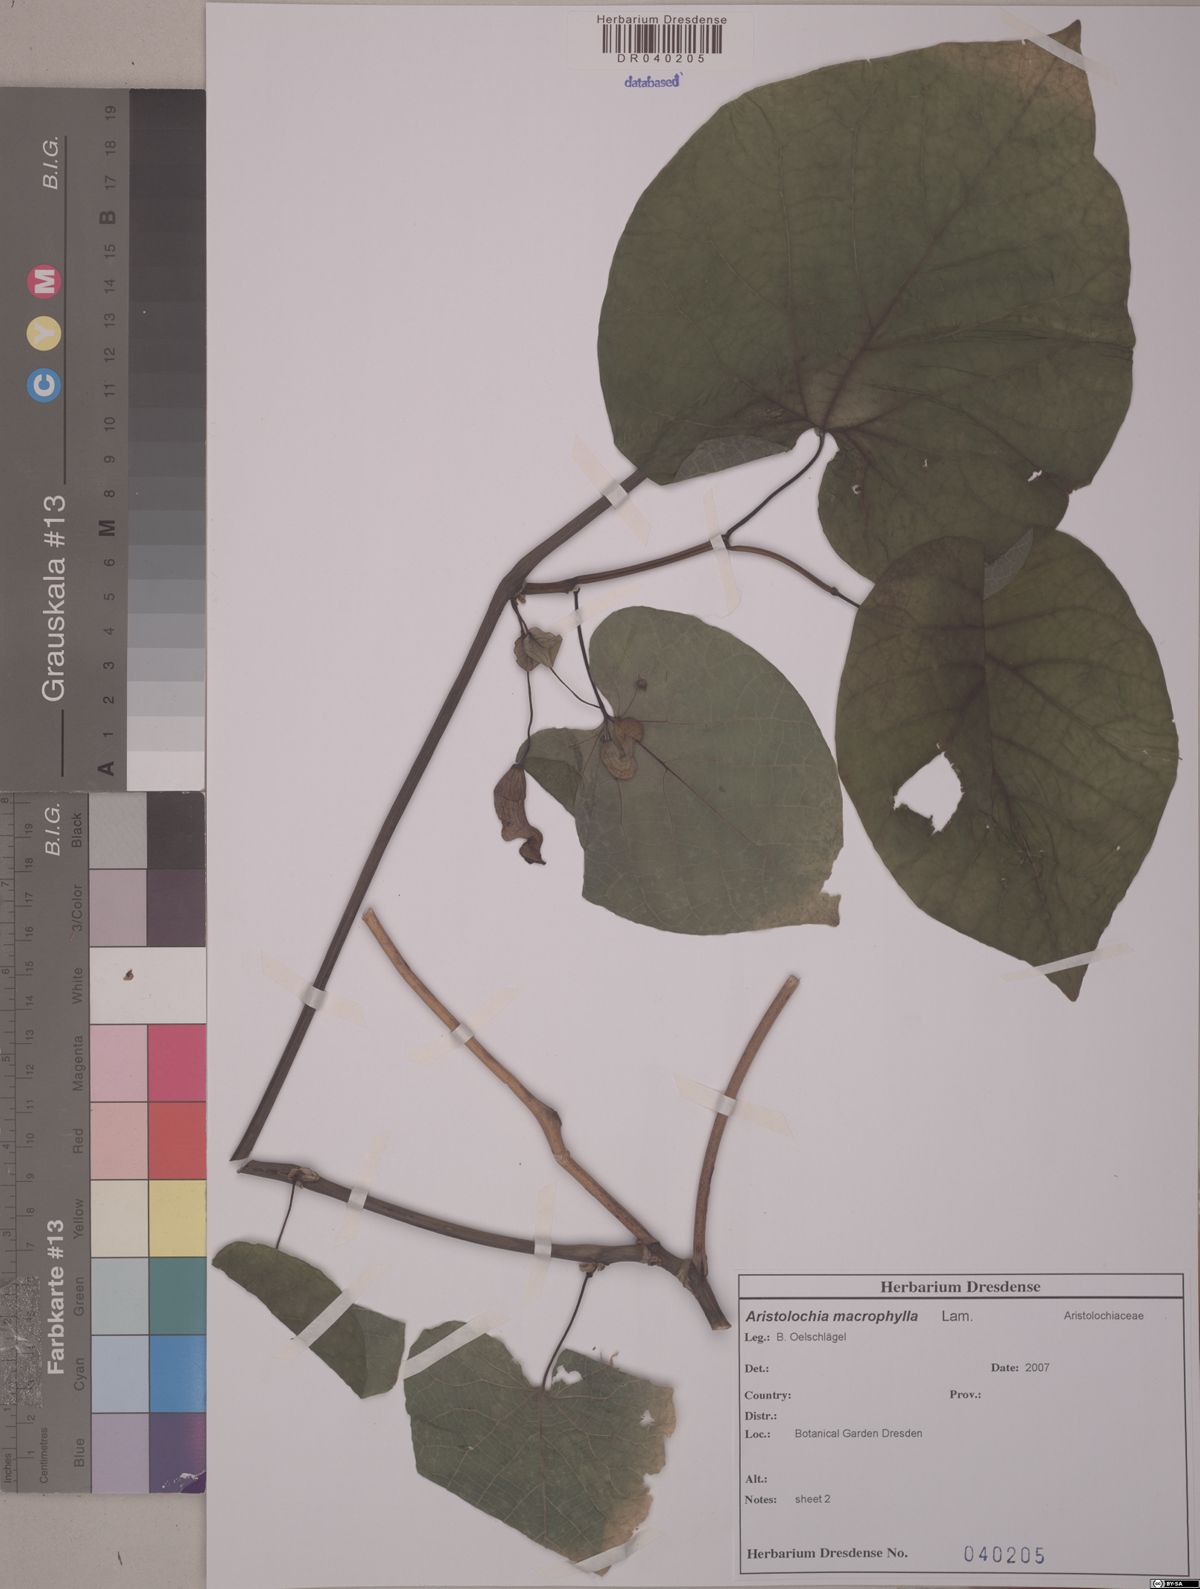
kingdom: Plantae
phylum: Tracheophyta
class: Magnoliopsida
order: Piperales
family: Aristolochiaceae
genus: Isotrema
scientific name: Isotrema macrophyllum
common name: Dutchman's-pipe
